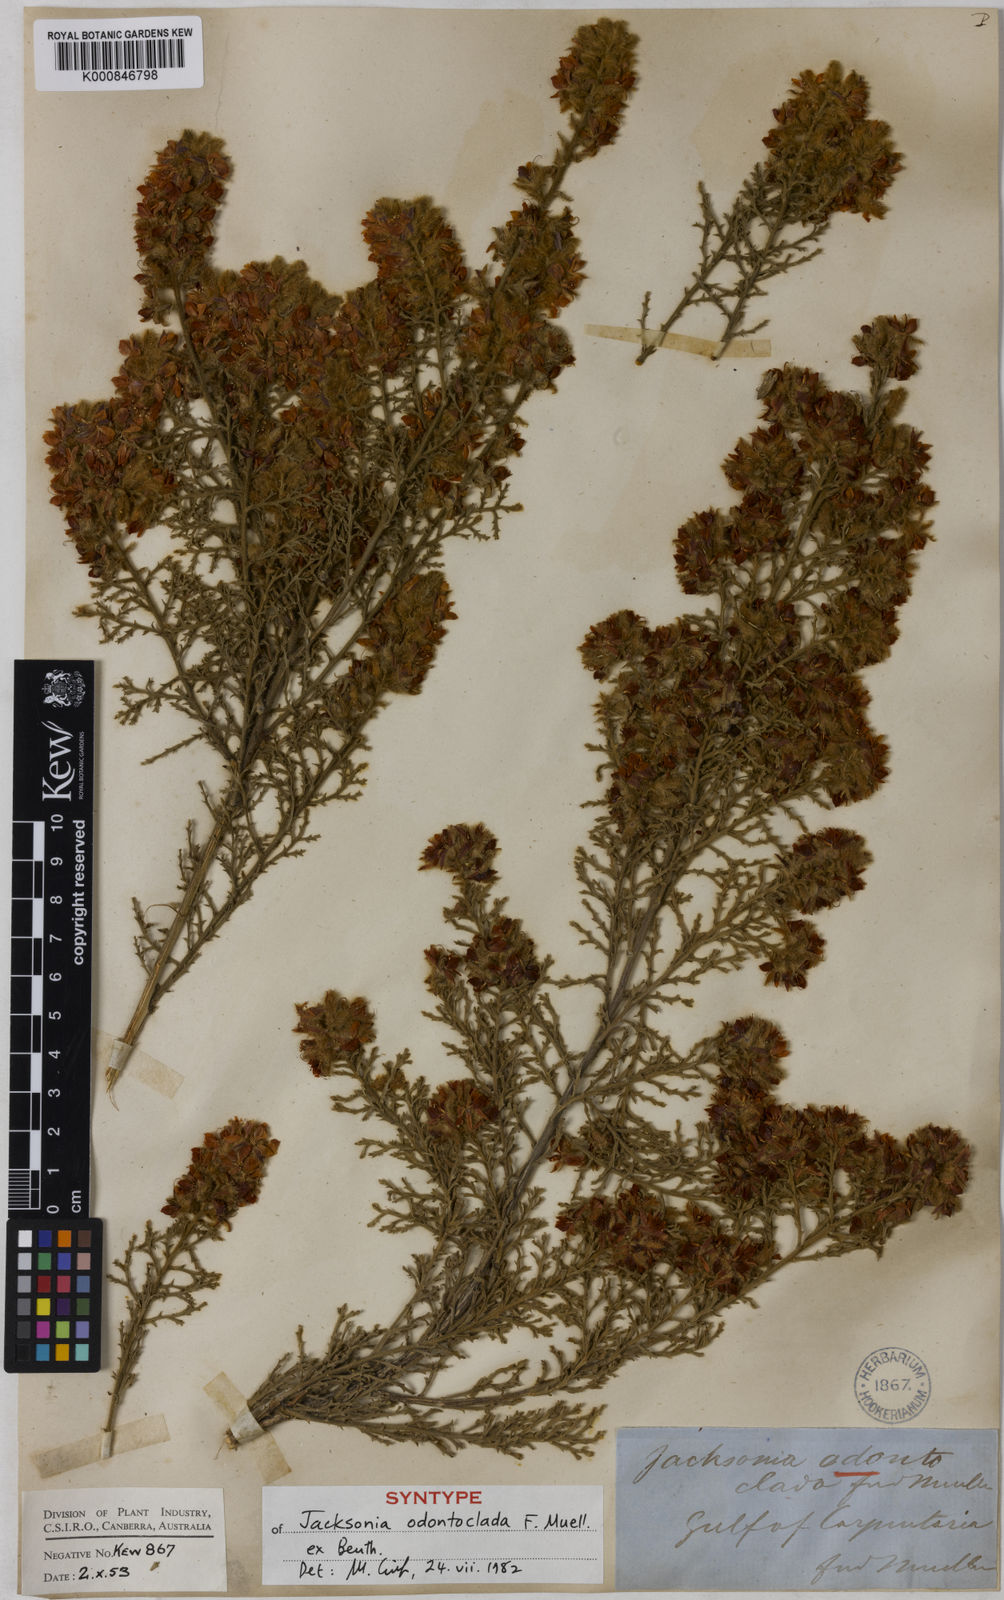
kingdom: Plantae
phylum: Tracheophyta
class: Magnoliopsida
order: Fabales
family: Fabaceae
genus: Jacksonia
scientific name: Jacksonia odontoclada
